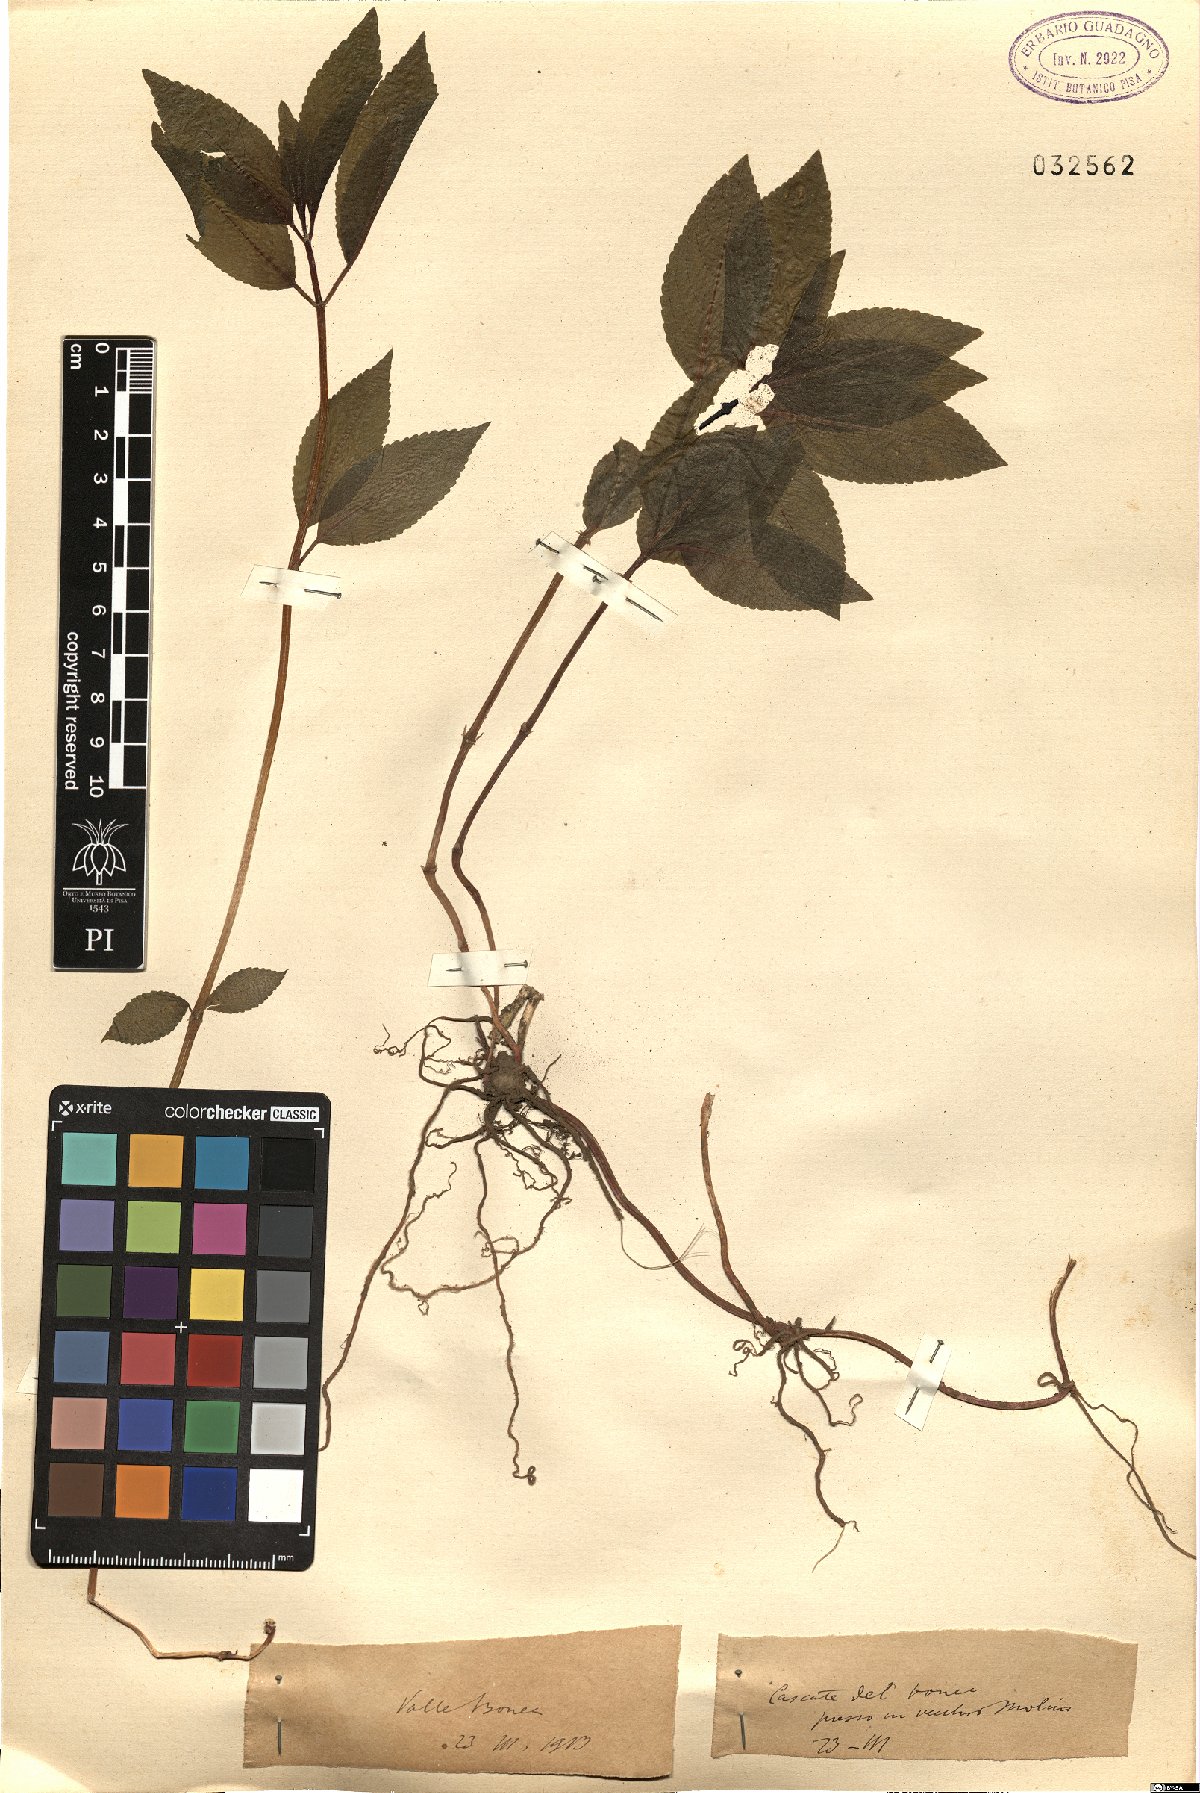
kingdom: Plantae
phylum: Tracheophyta
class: Magnoliopsida
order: Malpighiales
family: Euphorbiaceae
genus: Mercurialis
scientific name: Mercurialis
